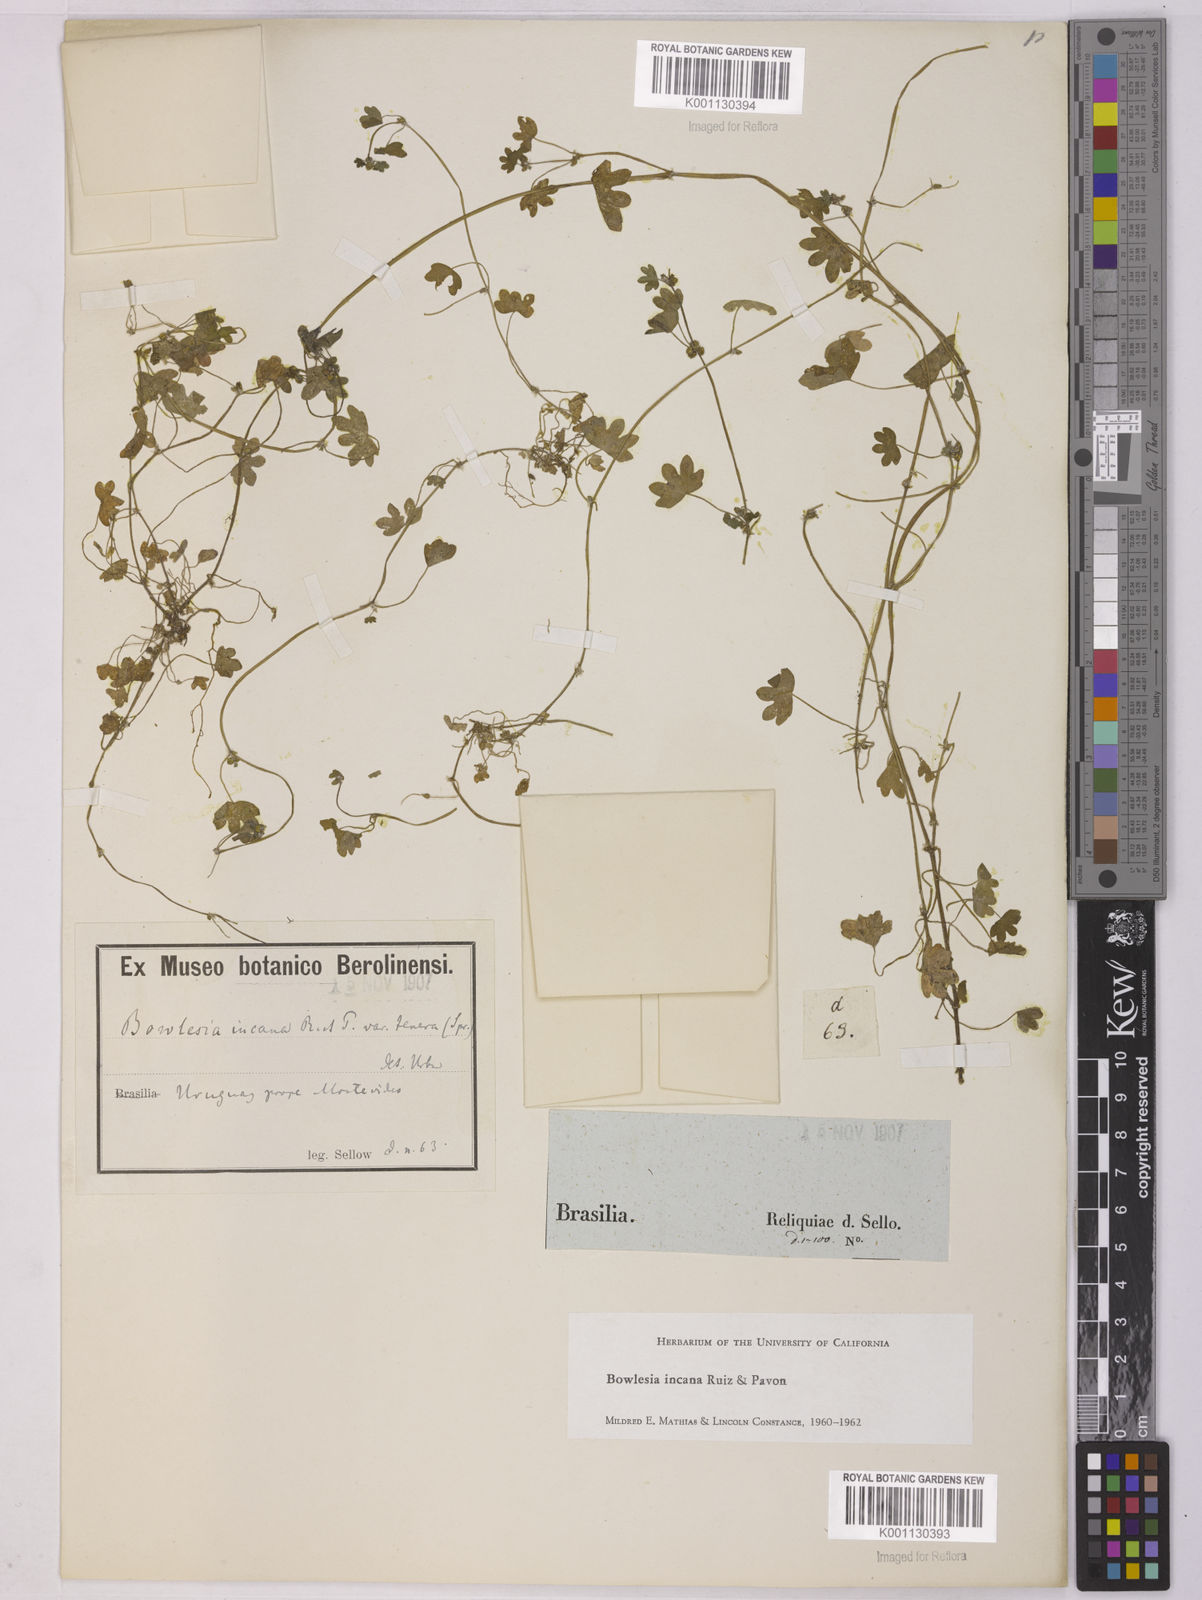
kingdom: Plantae
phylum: Tracheophyta
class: Magnoliopsida
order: Apiales
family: Apiaceae
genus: Bowlesia
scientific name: Bowlesia incana
